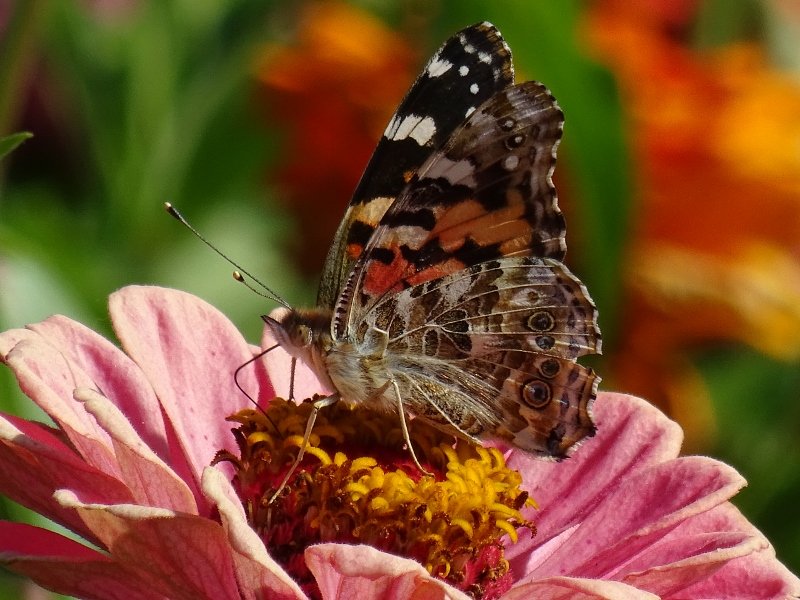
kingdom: Animalia
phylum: Arthropoda
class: Insecta
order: Lepidoptera
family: Nymphalidae
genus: Vanessa
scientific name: Vanessa cardui
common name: Painted Lady
